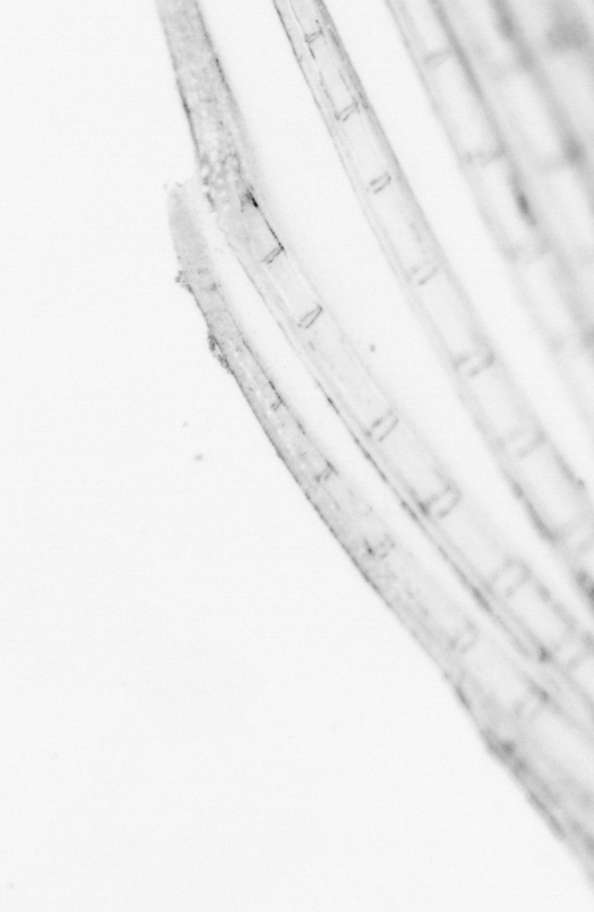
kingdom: Animalia
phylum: Chordata
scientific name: Chordata
